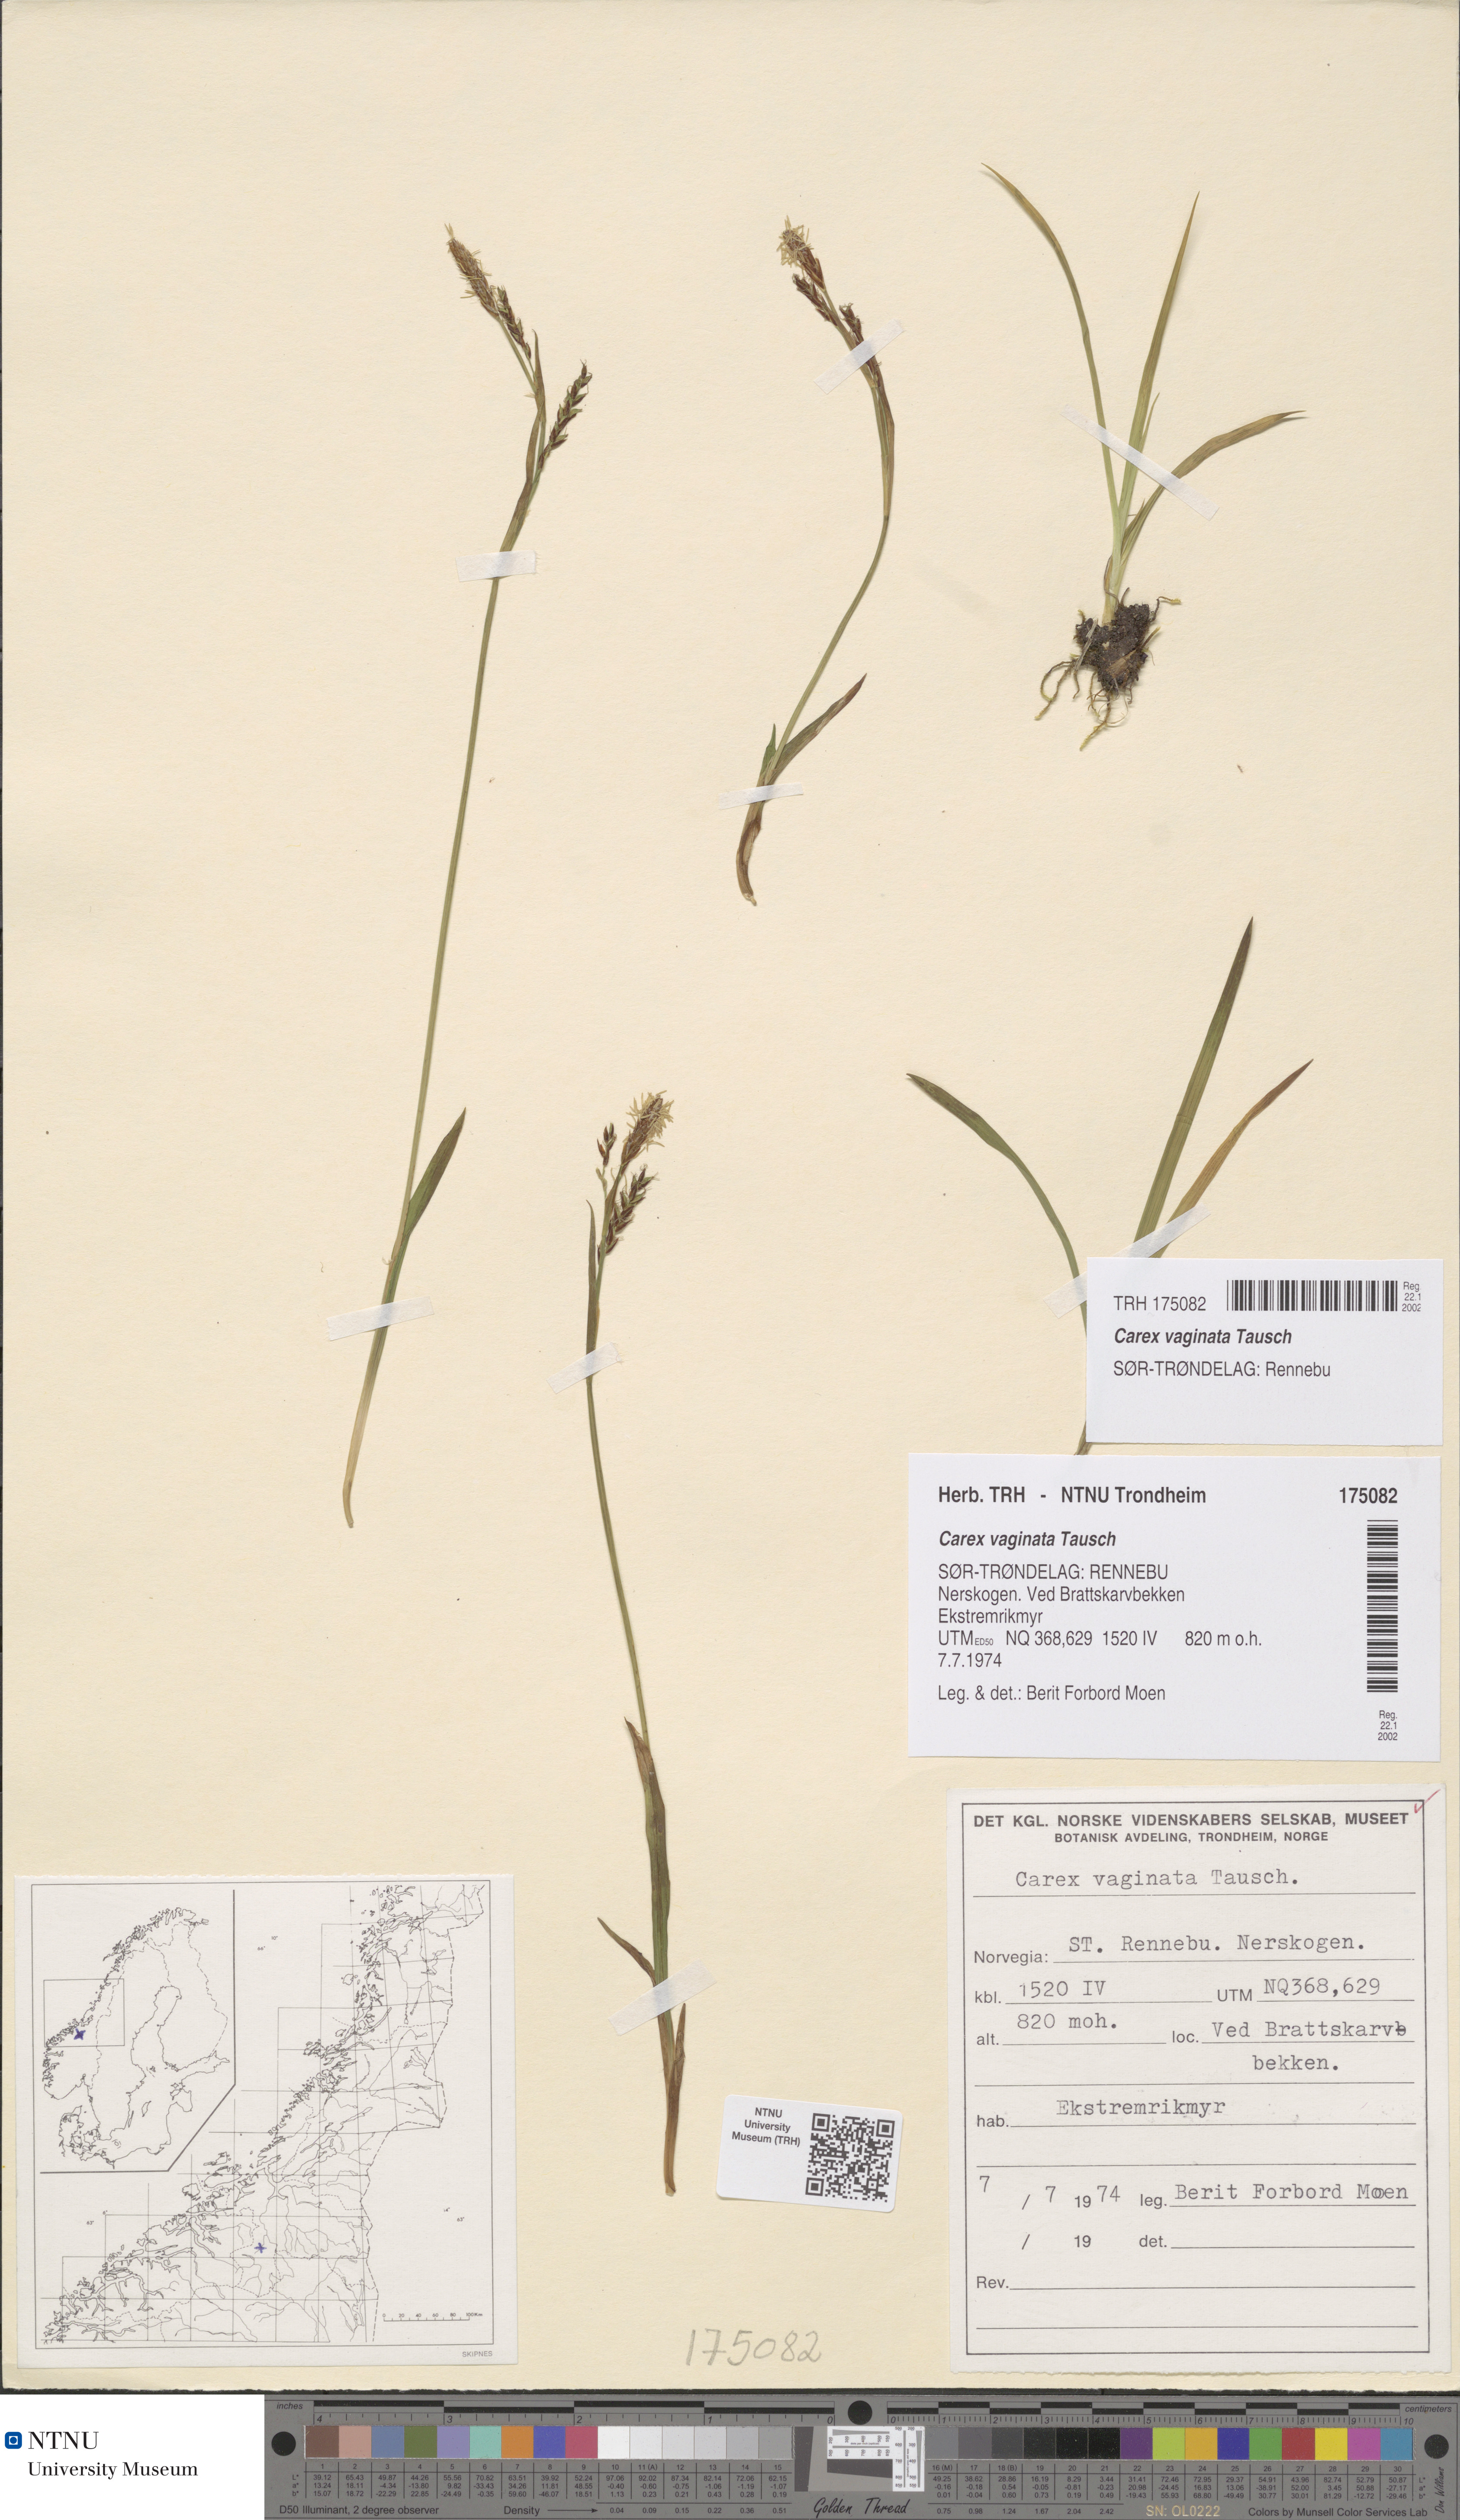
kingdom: Plantae
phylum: Tracheophyta
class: Liliopsida
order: Poales
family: Cyperaceae
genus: Carex
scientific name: Carex vaginata
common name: Sheathed sedge
